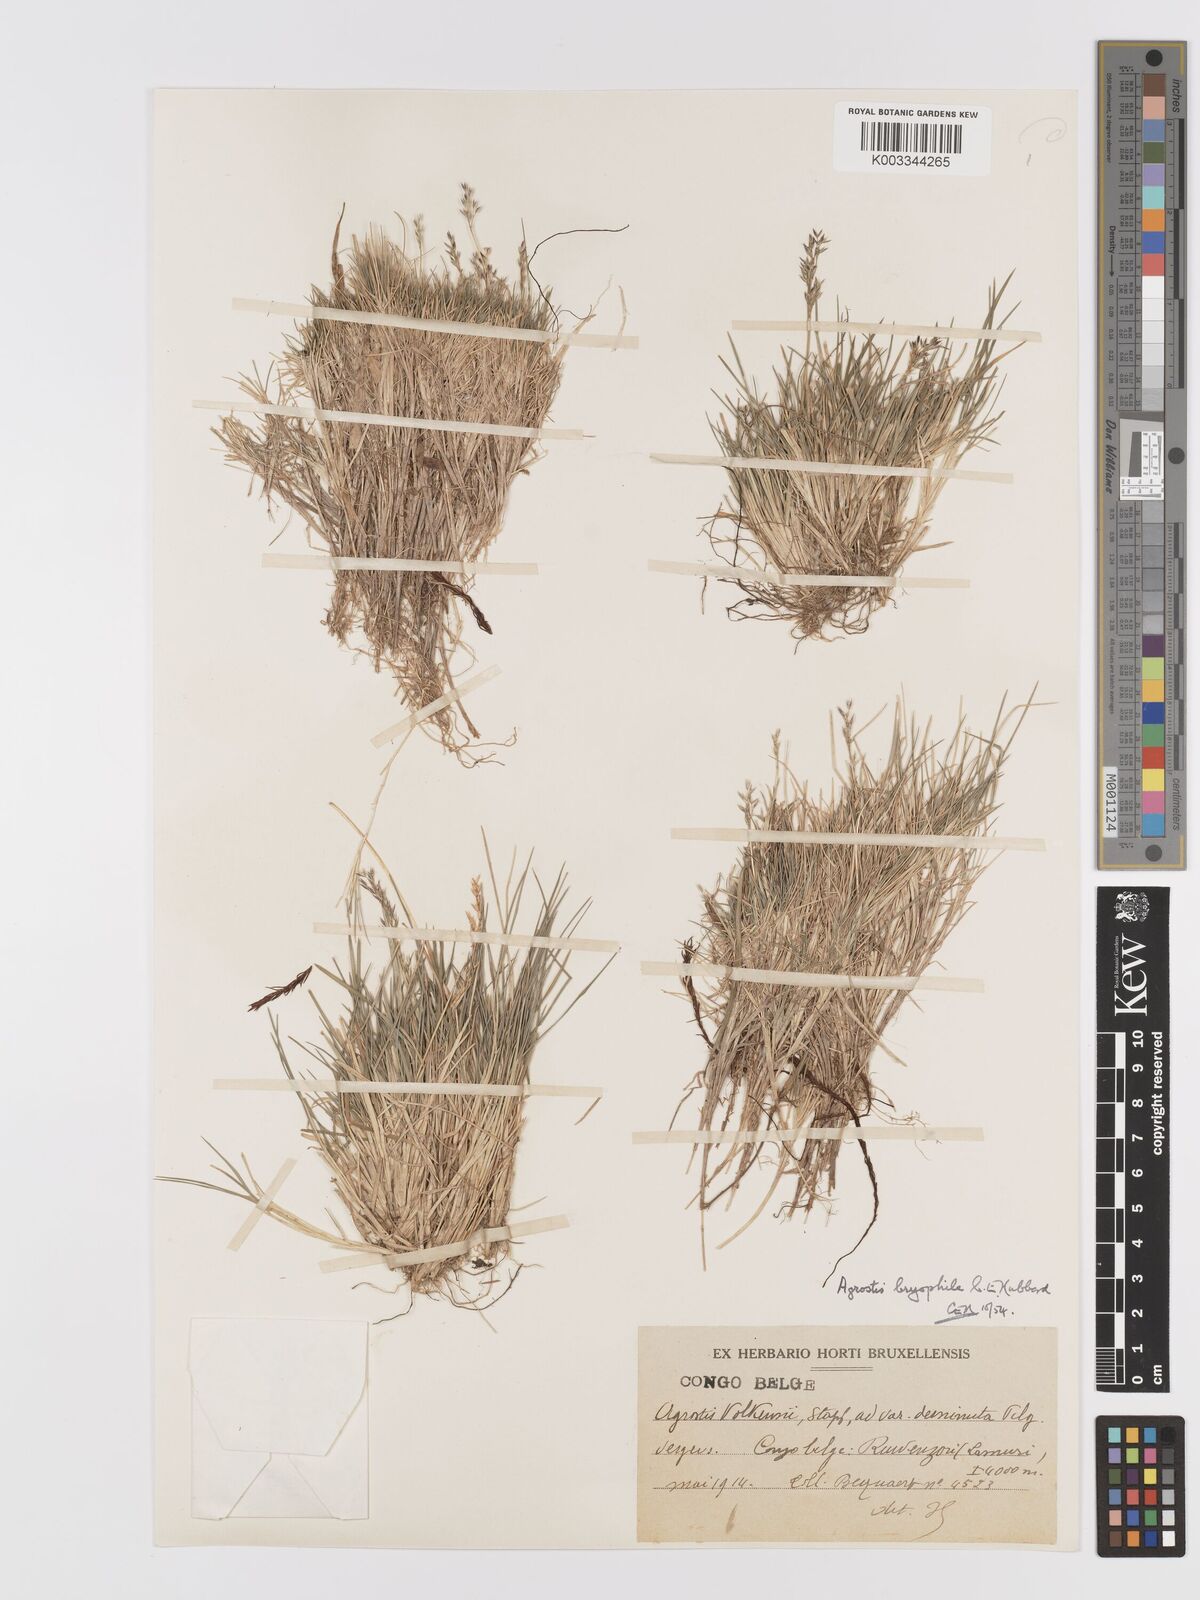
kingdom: Plantae
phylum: Tracheophyta
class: Liliopsida
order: Poales
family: Poaceae
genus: Agrostis
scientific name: Agrostis gracilifolia
